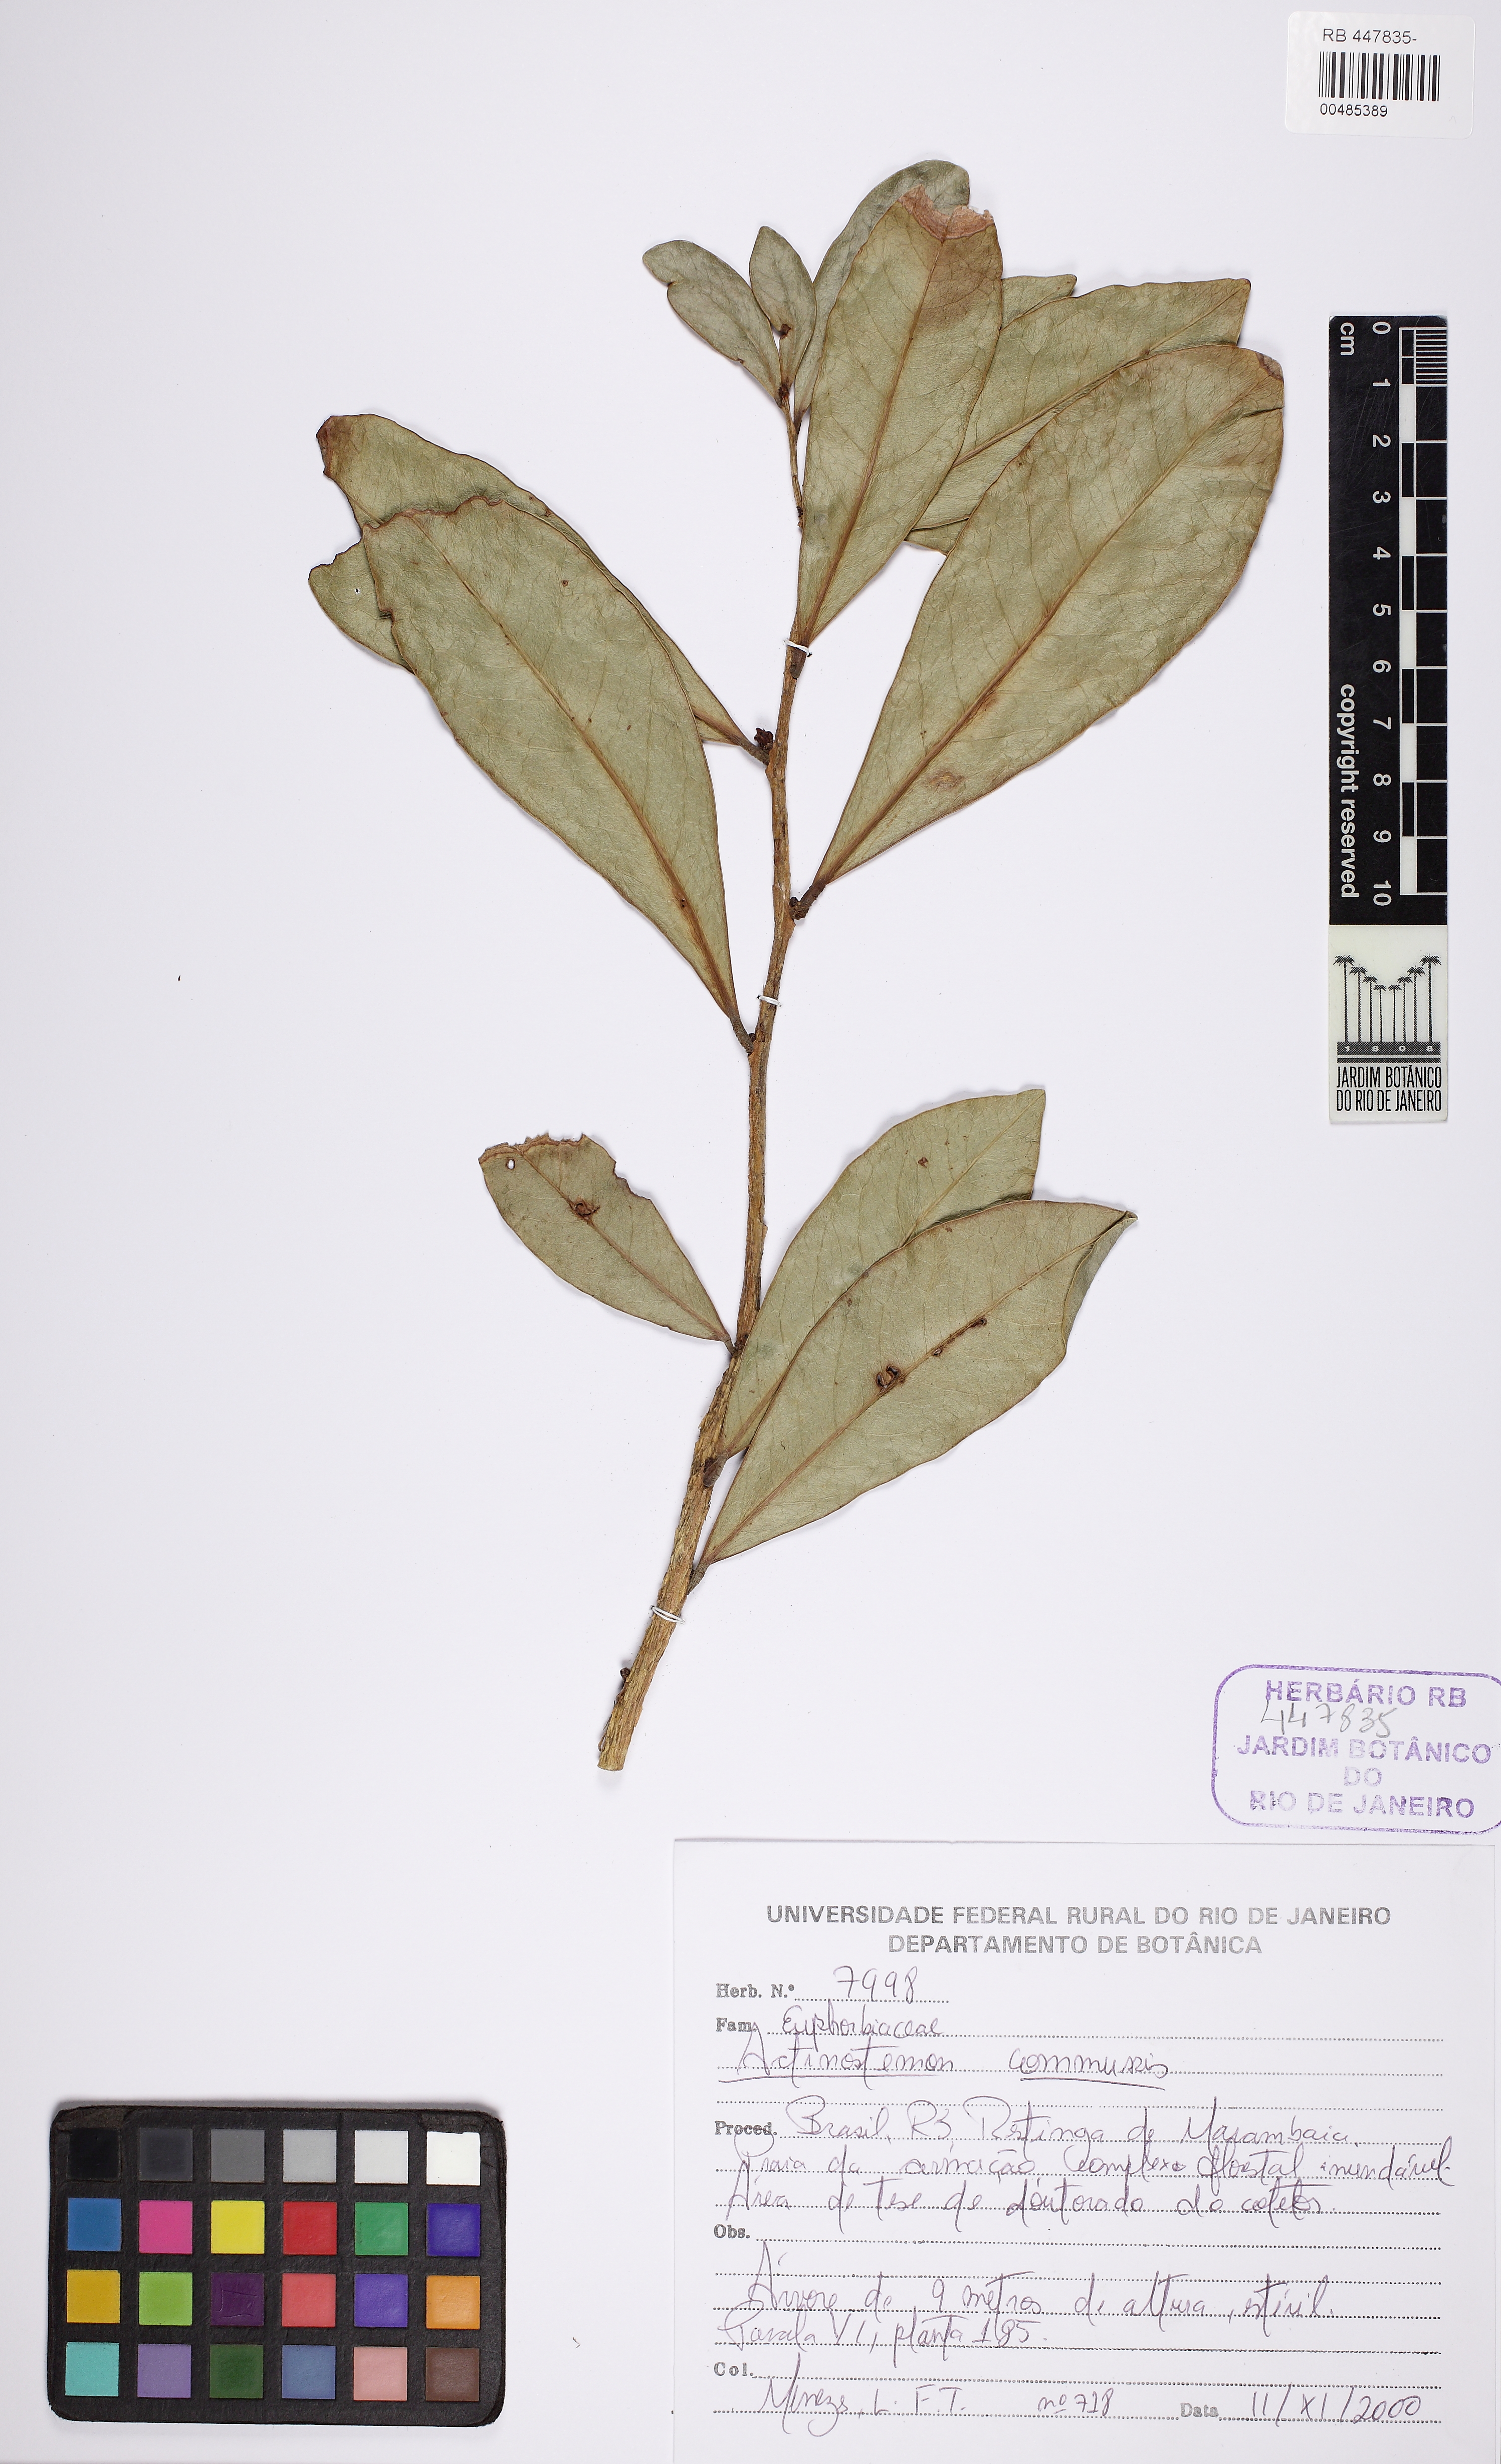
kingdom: Plantae
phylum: Tracheophyta
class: Magnoliopsida
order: Malpighiales
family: Euphorbiaceae
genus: Actinostemon
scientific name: Actinostemon klotzschii
